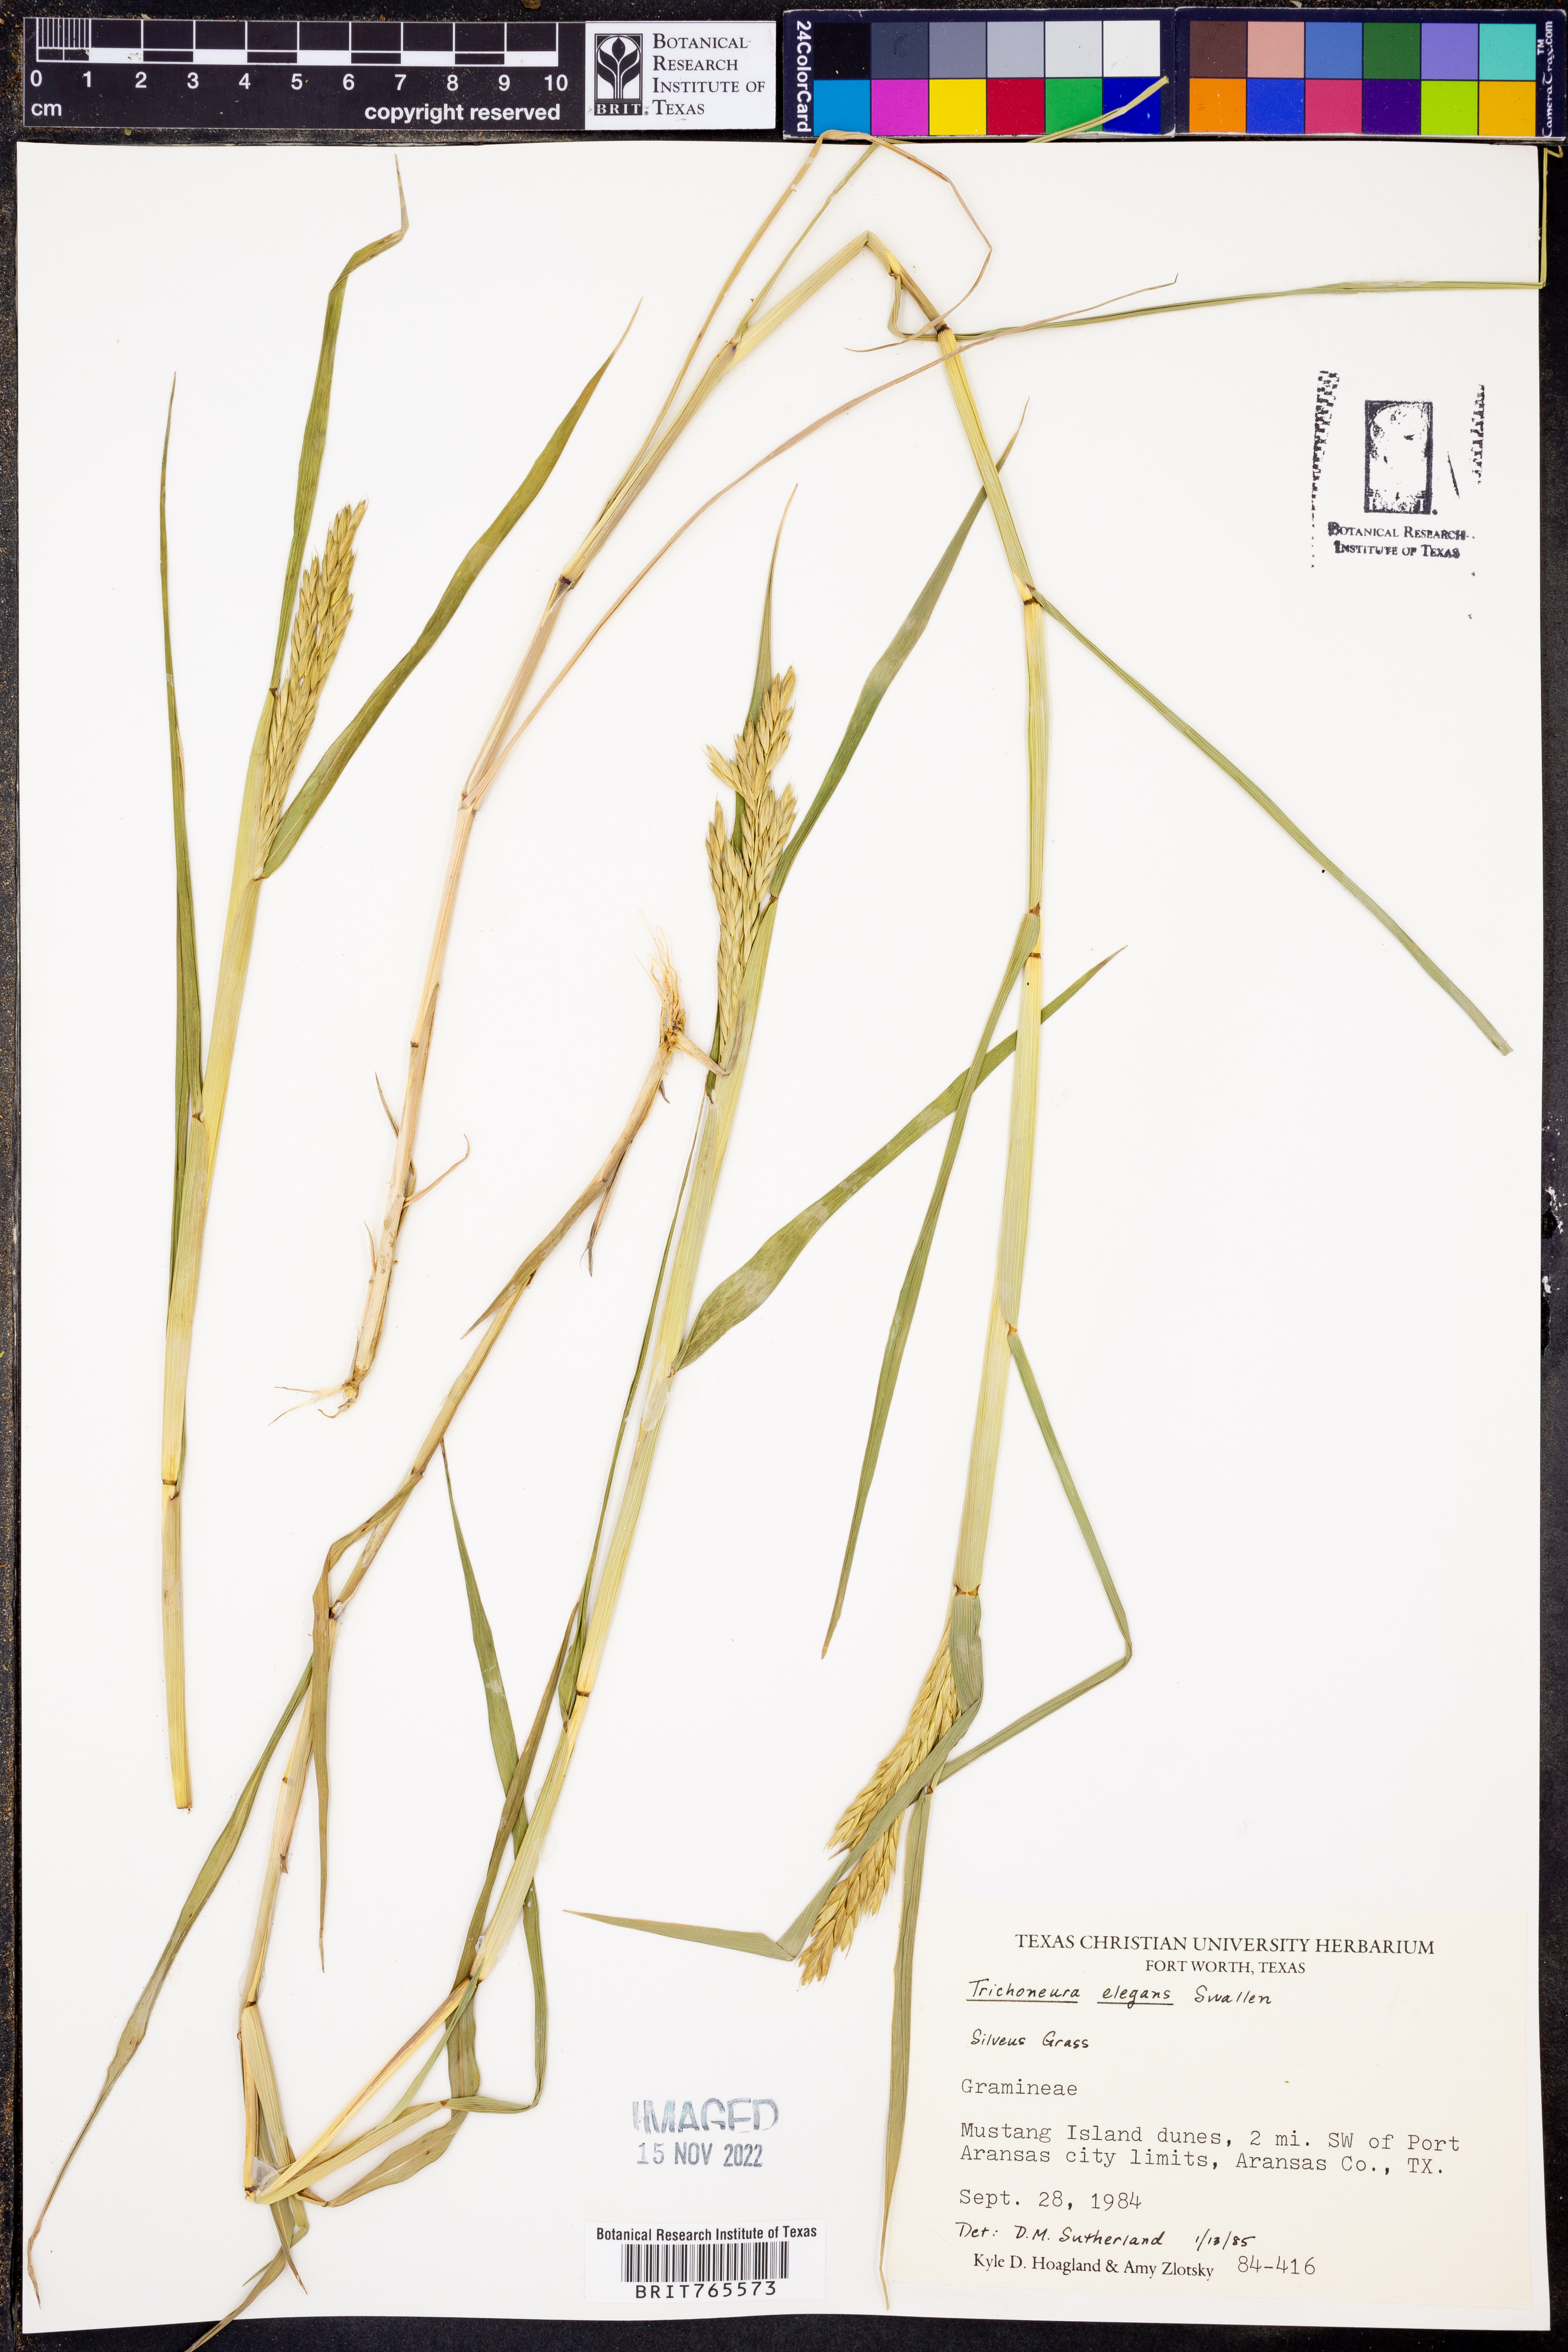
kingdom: Plantae
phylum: Tracheophyta
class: Liliopsida
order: Poales
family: Poaceae
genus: Trichoneura
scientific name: Trichoneura elegans
